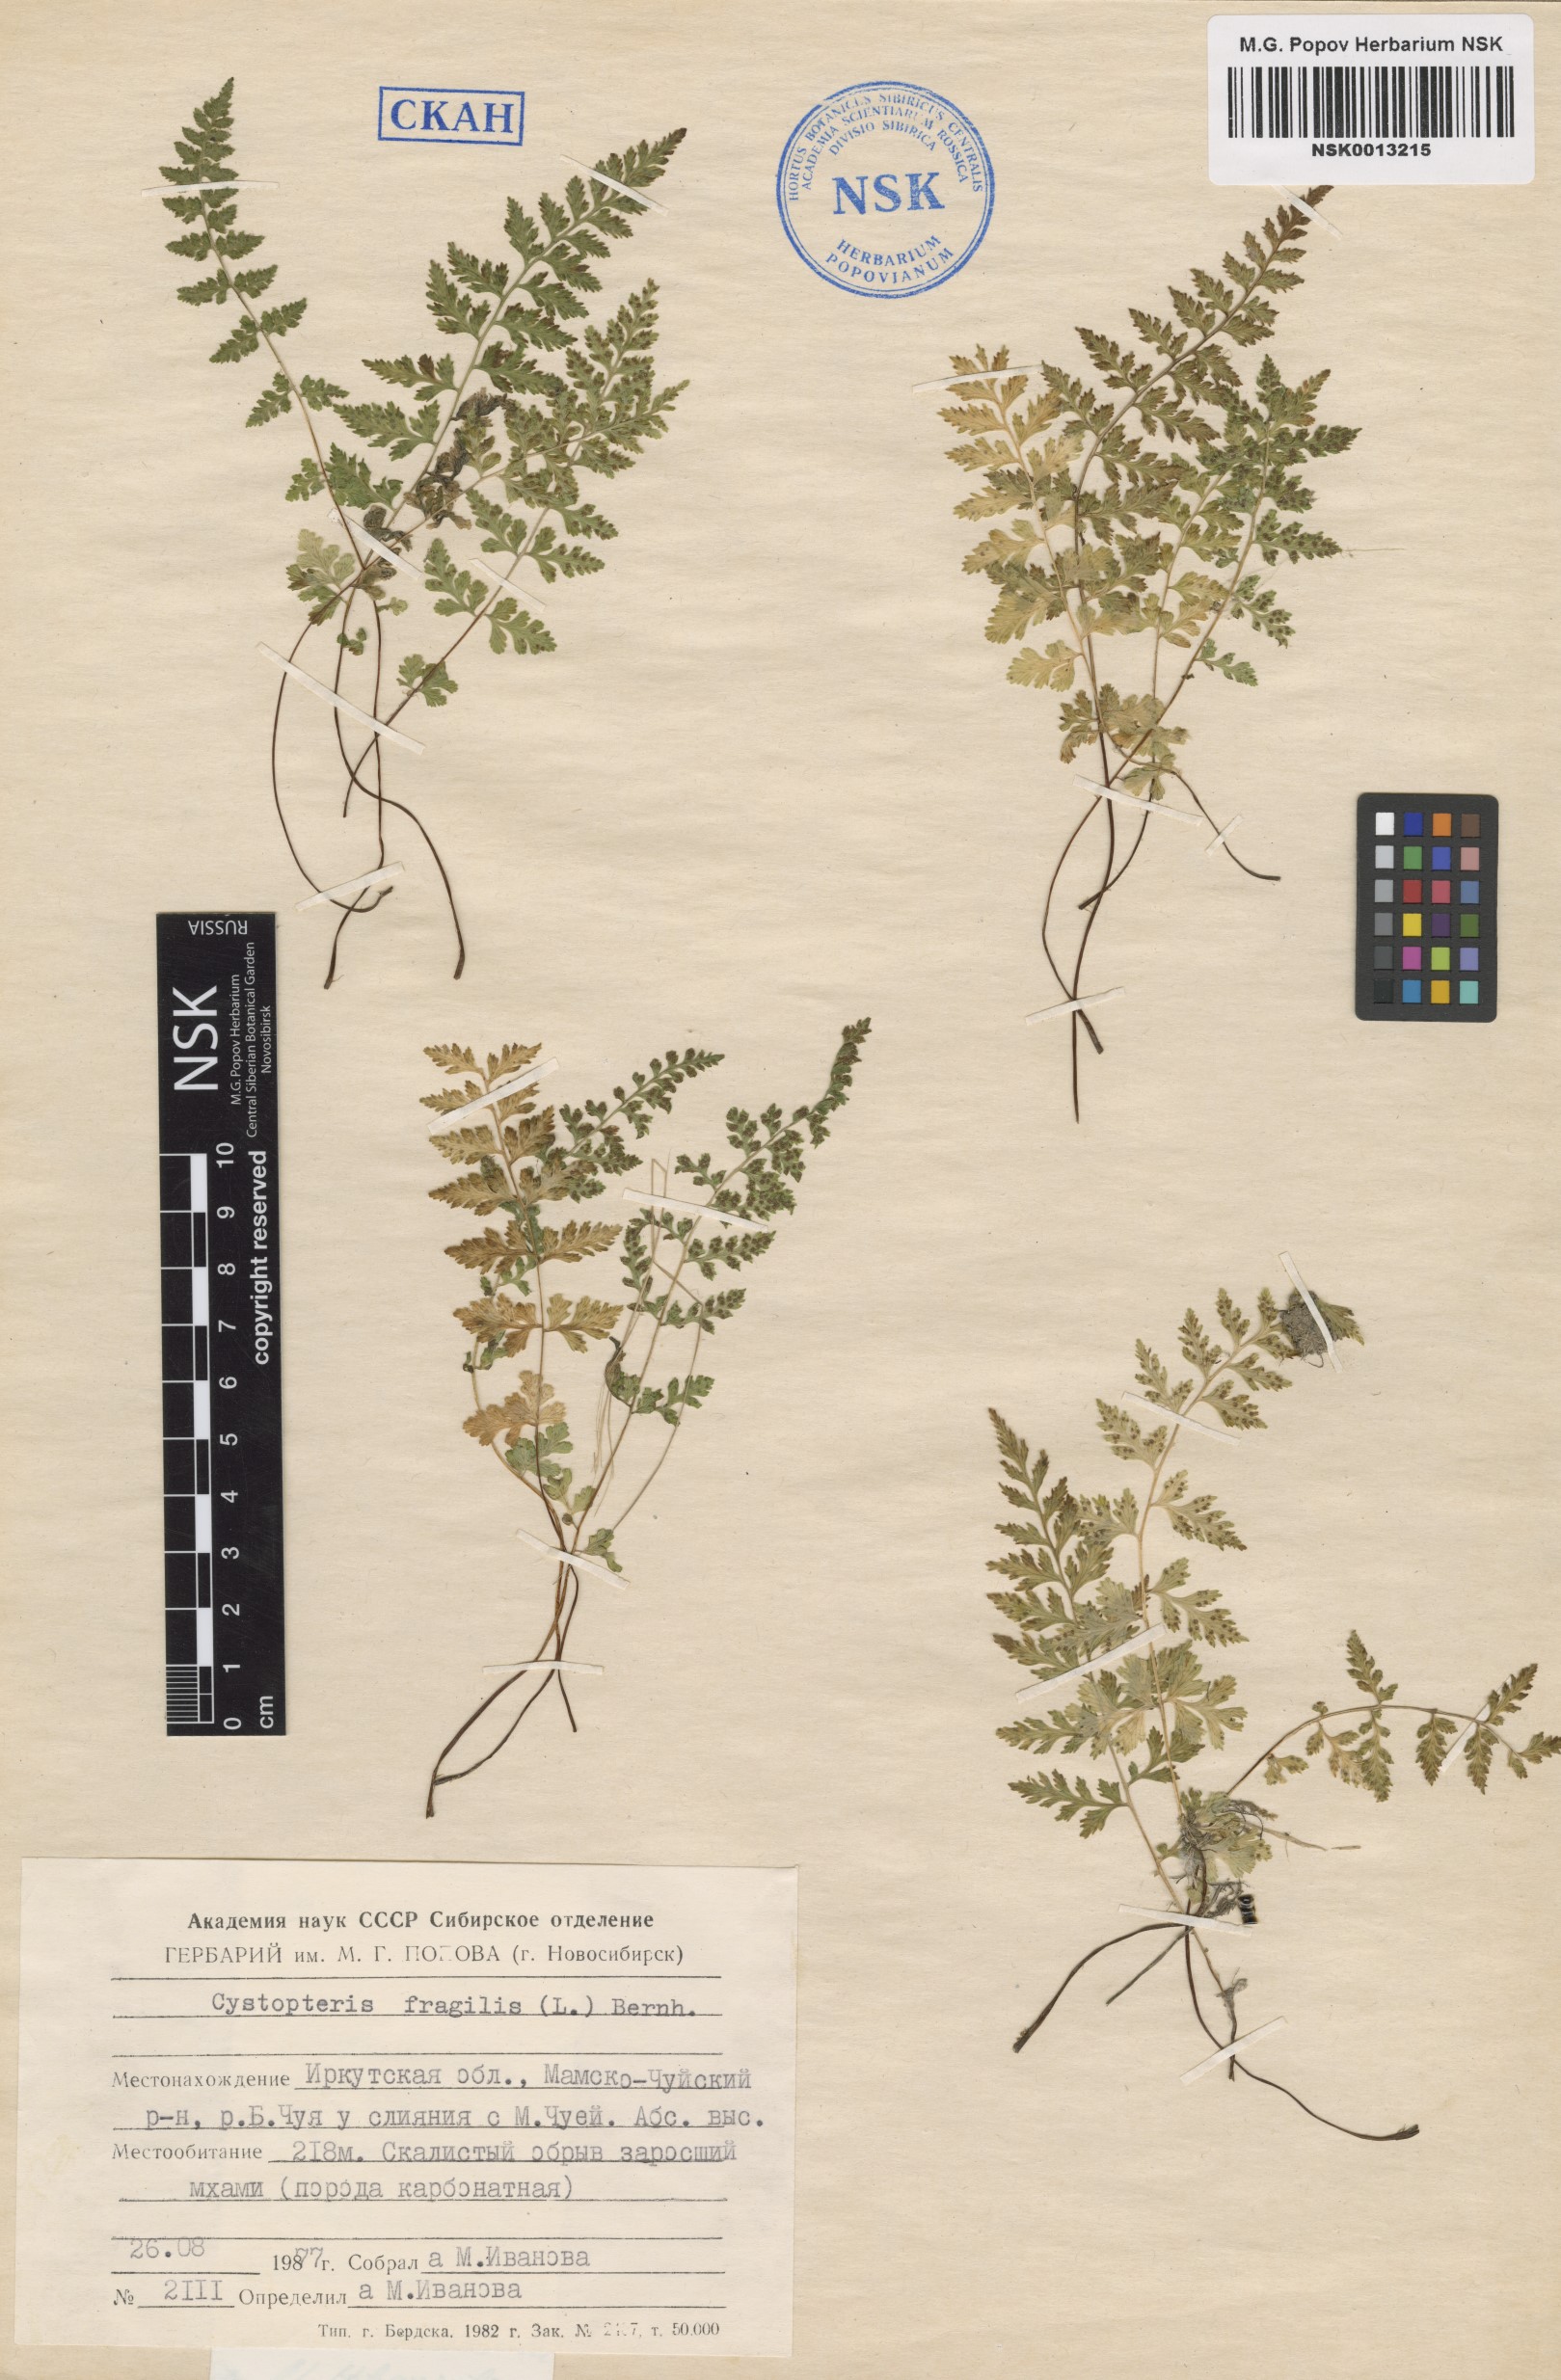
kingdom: Plantae
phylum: Tracheophyta
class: Polypodiopsida
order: Polypodiales
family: Cystopteridaceae
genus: Cystopteris
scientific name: Cystopteris fragilis
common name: Brittle bladder fern
